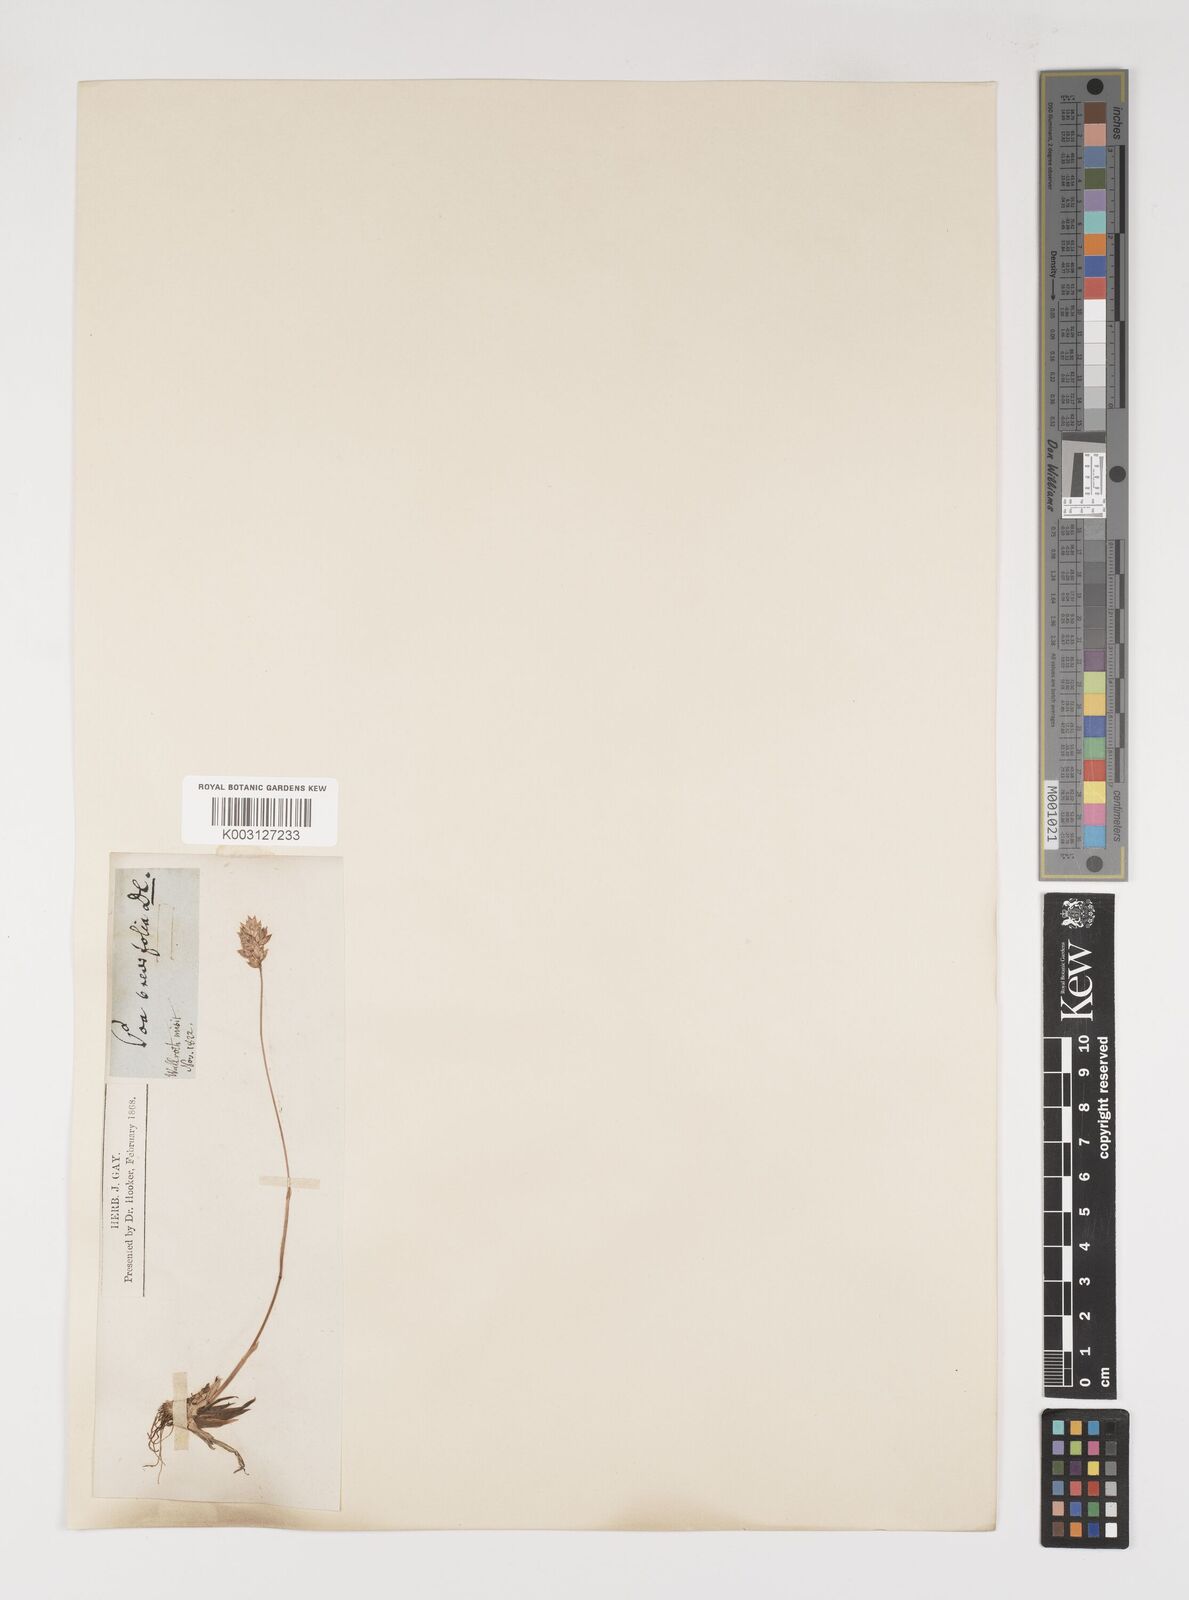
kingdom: Plantae
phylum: Tracheophyta
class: Liliopsida
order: Poales
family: Poaceae
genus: Poa
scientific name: Poa alpina
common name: Alpine bluegrass
